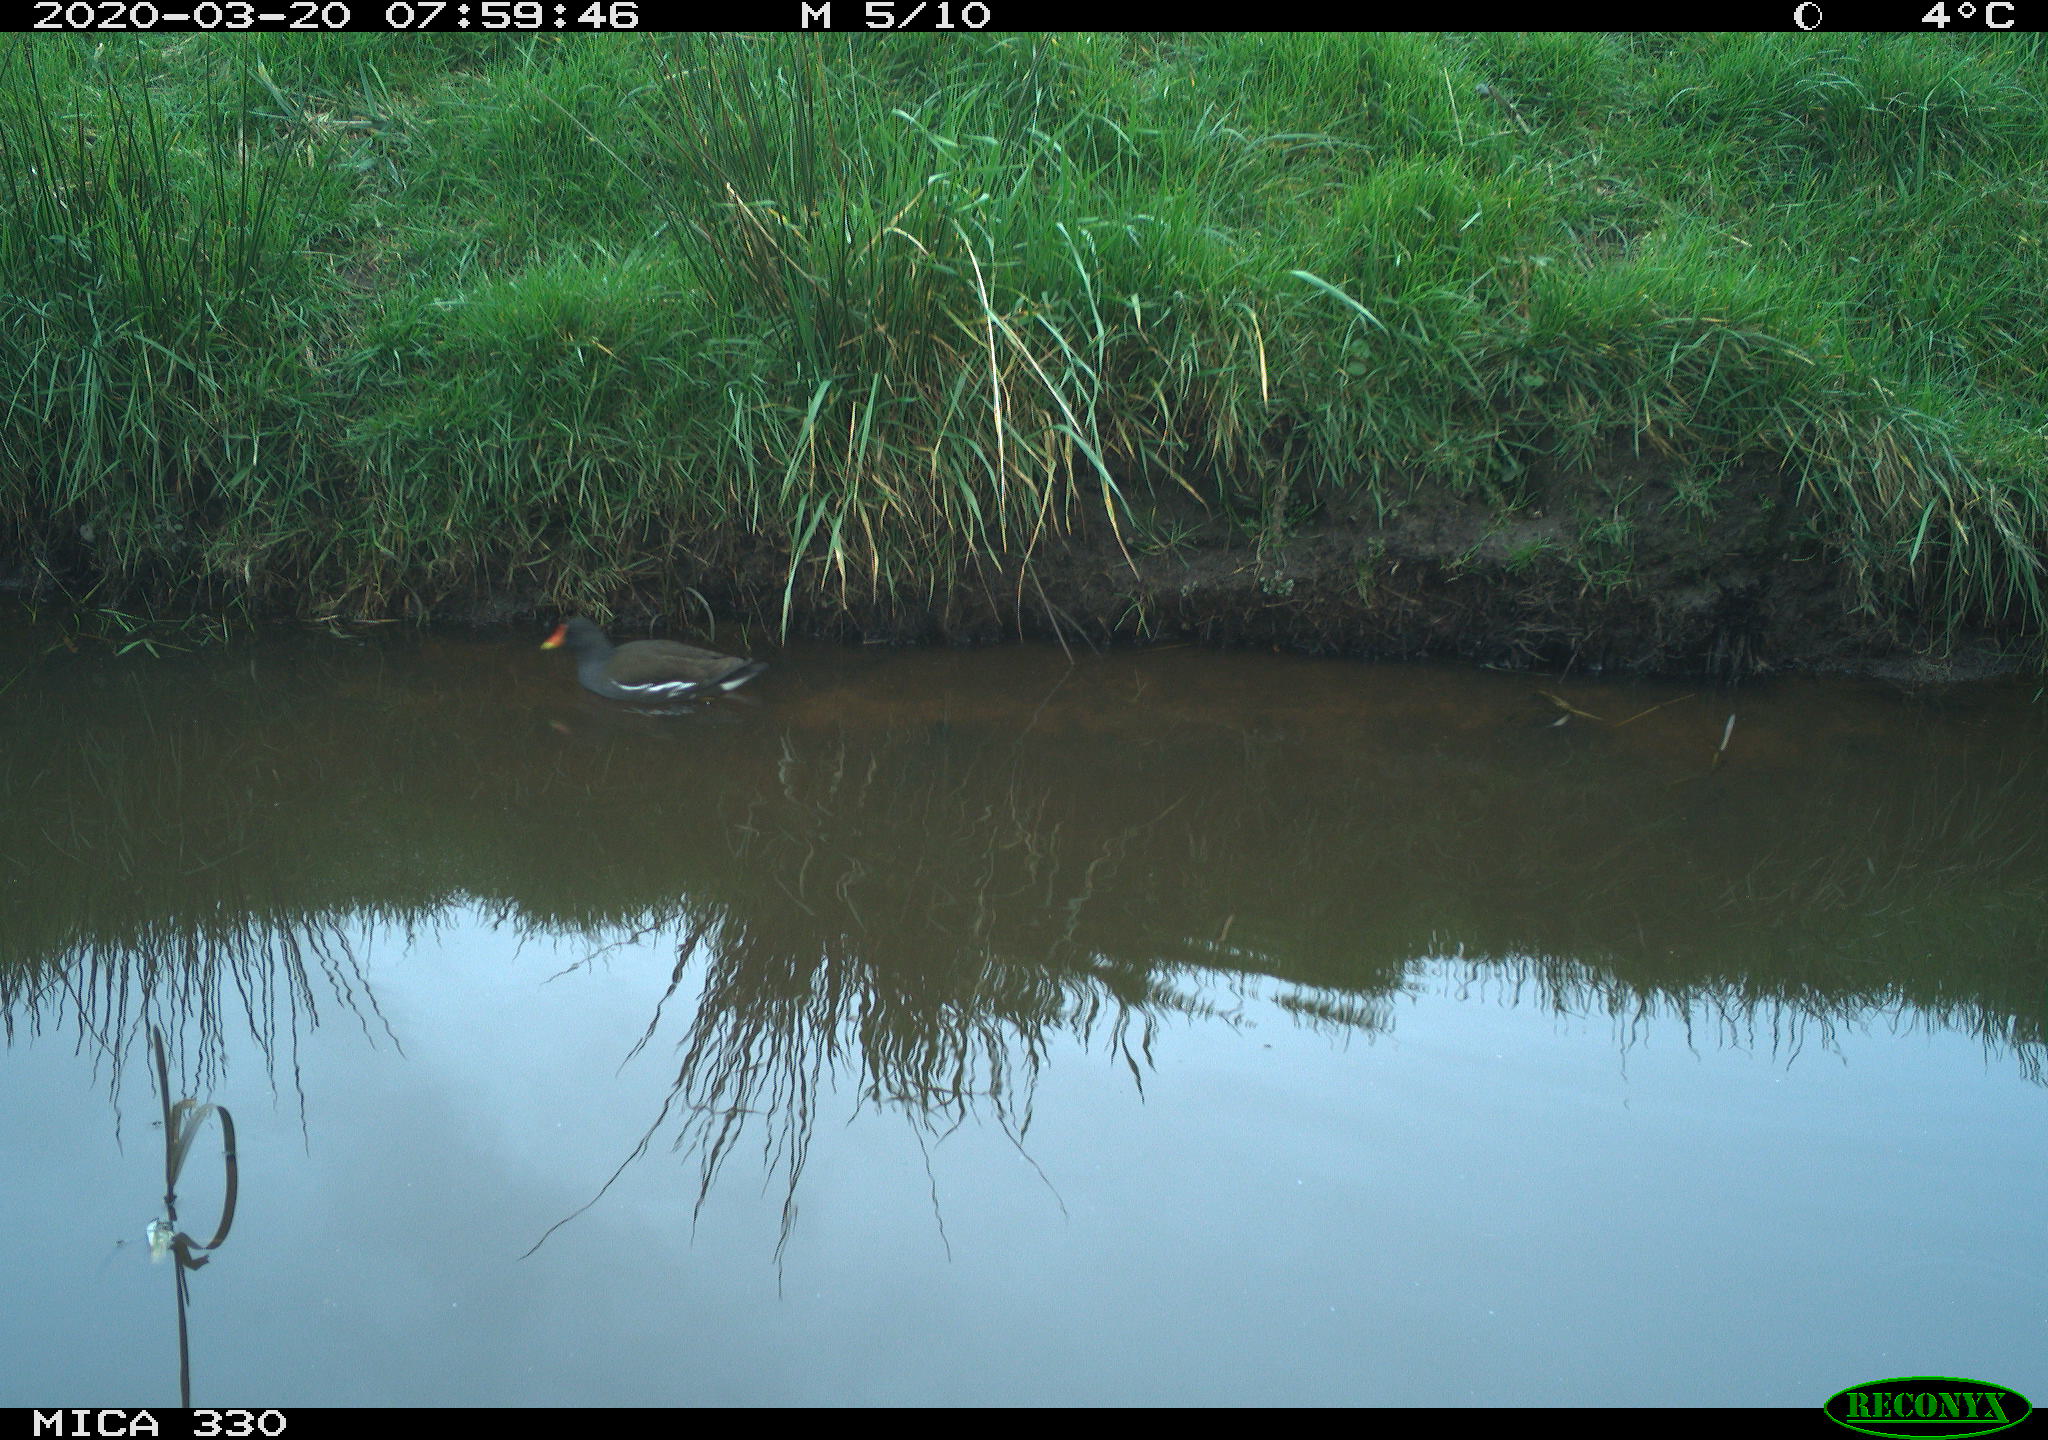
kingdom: Animalia
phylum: Chordata
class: Aves
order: Gruiformes
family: Rallidae
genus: Gallinula
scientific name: Gallinula chloropus
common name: Common moorhen
